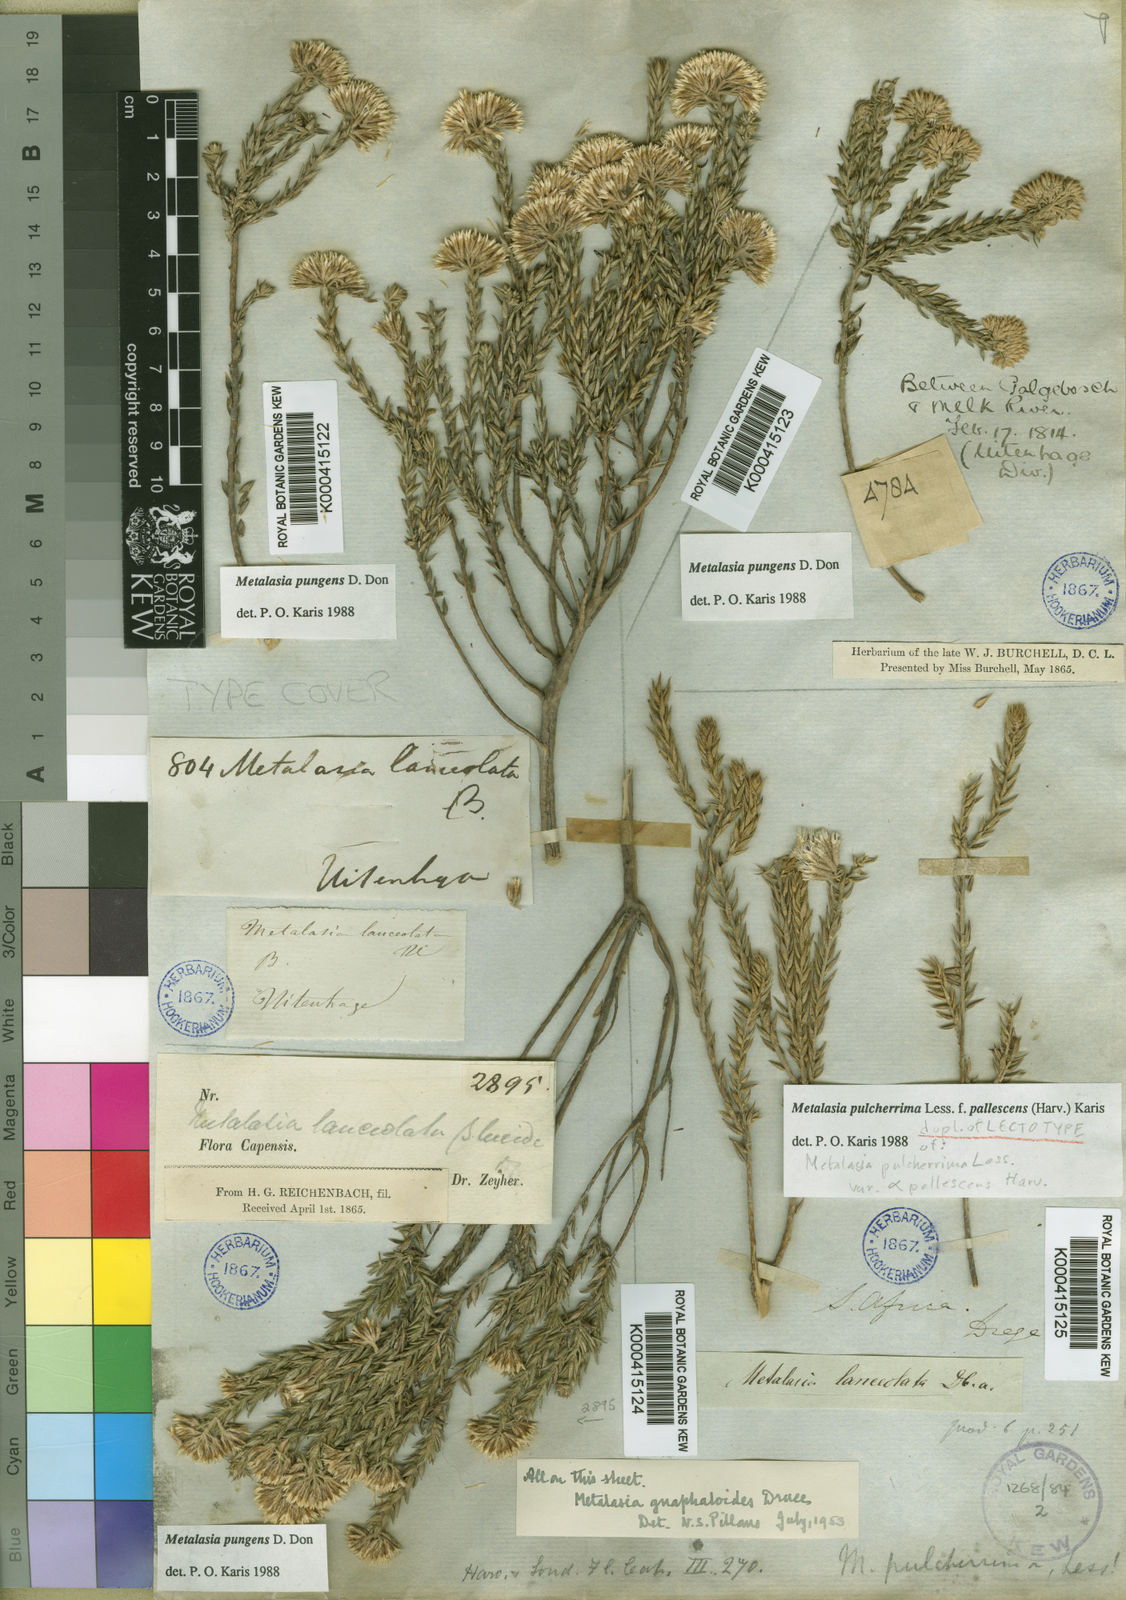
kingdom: Plantae
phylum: Tracheophyta
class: Magnoliopsida
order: Asterales
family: Asteraceae
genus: Metalasia
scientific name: Metalasia pulcherrima
